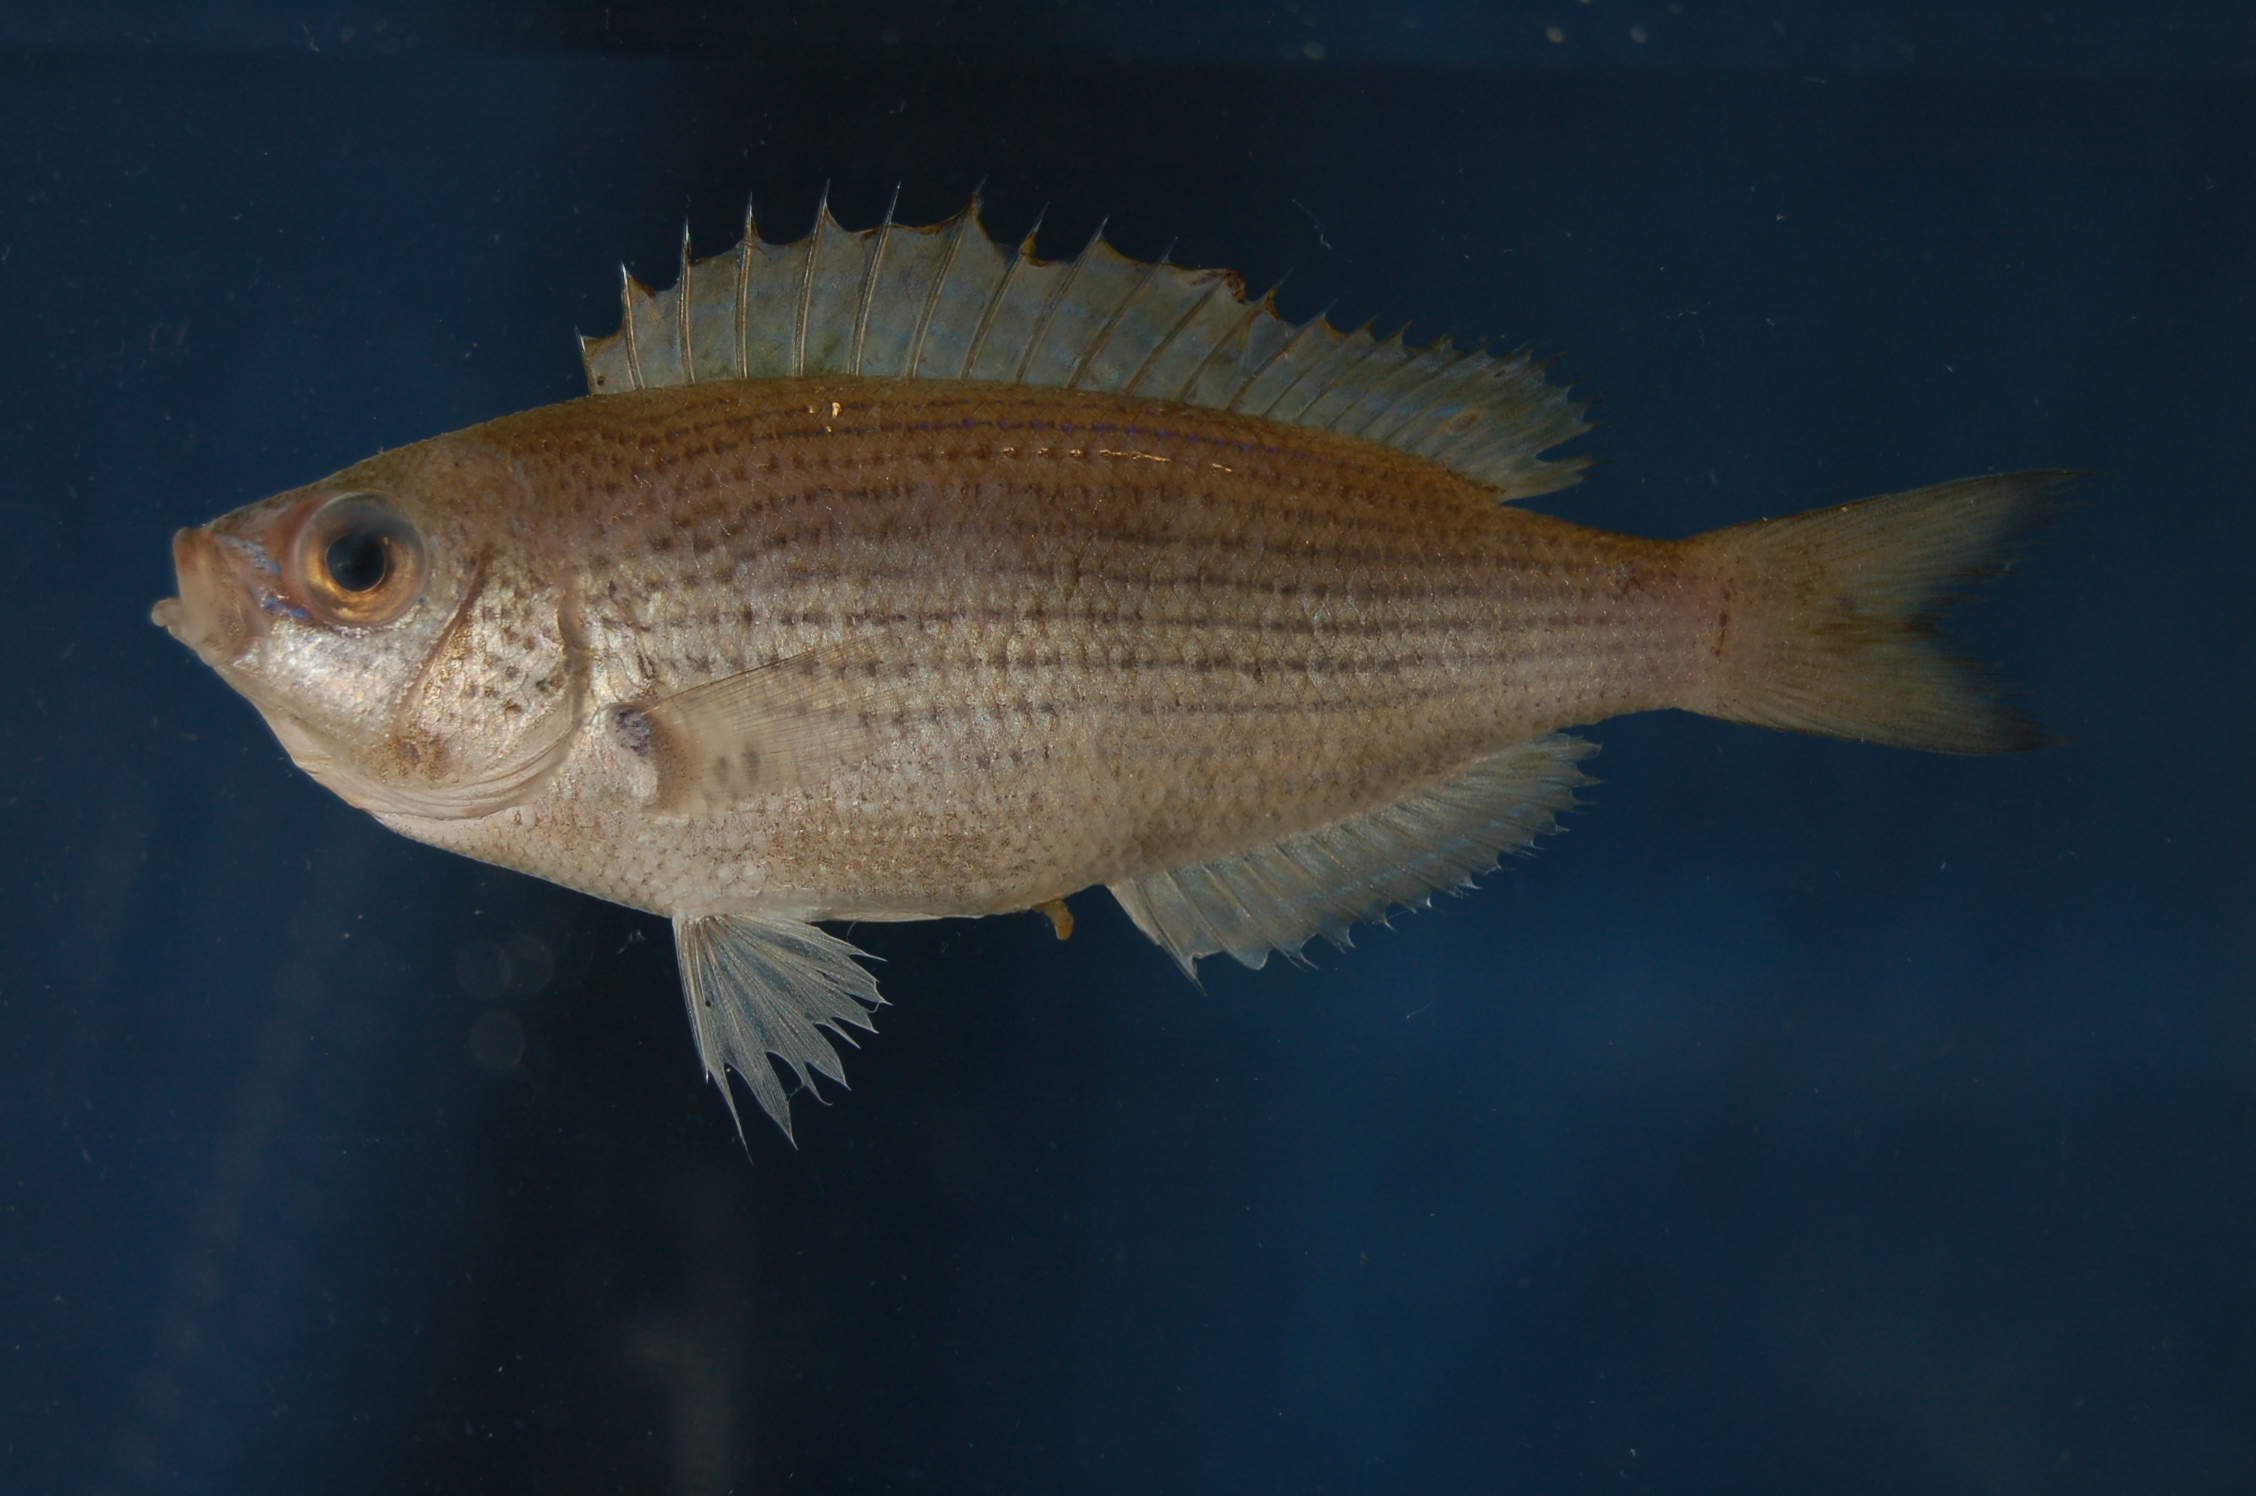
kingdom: Animalia
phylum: Chordata
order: Perciformes
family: Pomacentridae
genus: Teixeirichthys
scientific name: Teixeirichthys jordani
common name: Jordan's damsel
